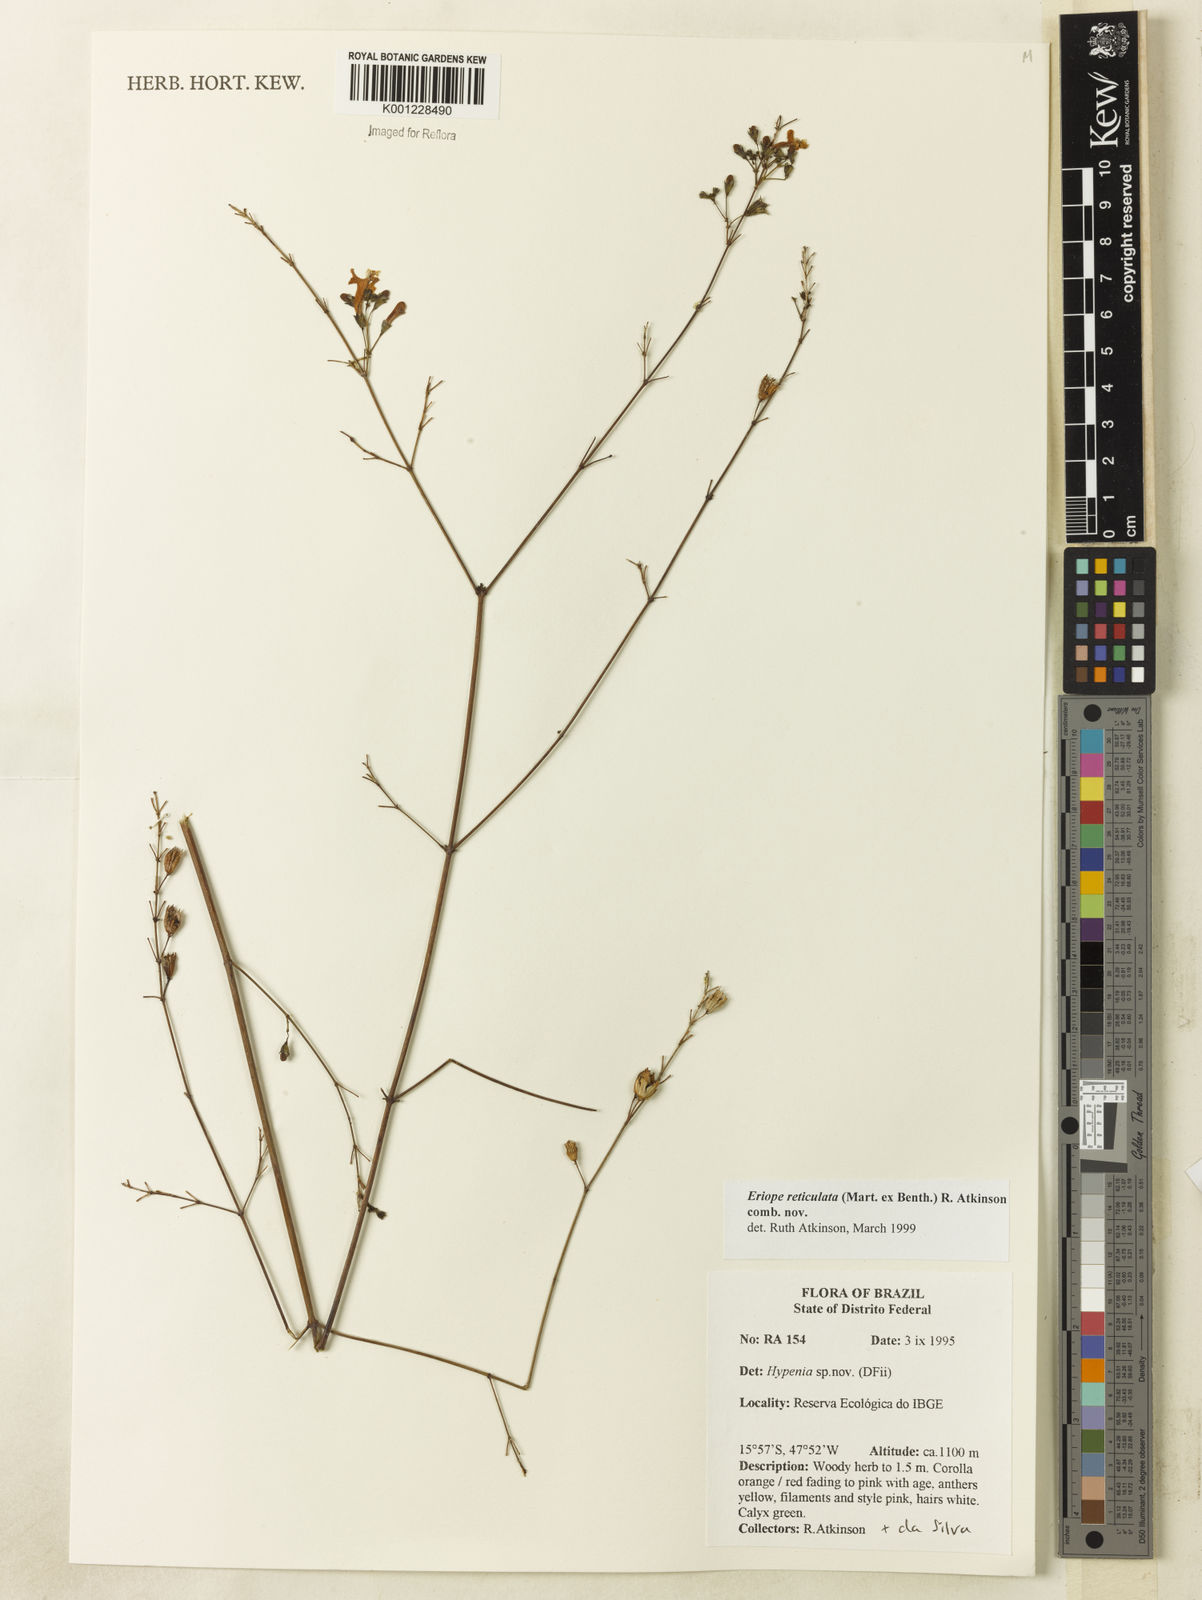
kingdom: Plantae
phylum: Tracheophyta
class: Magnoliopsida
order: Lamiales
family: Lamiaceae
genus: Hypenia
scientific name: Hypenia reticulata
